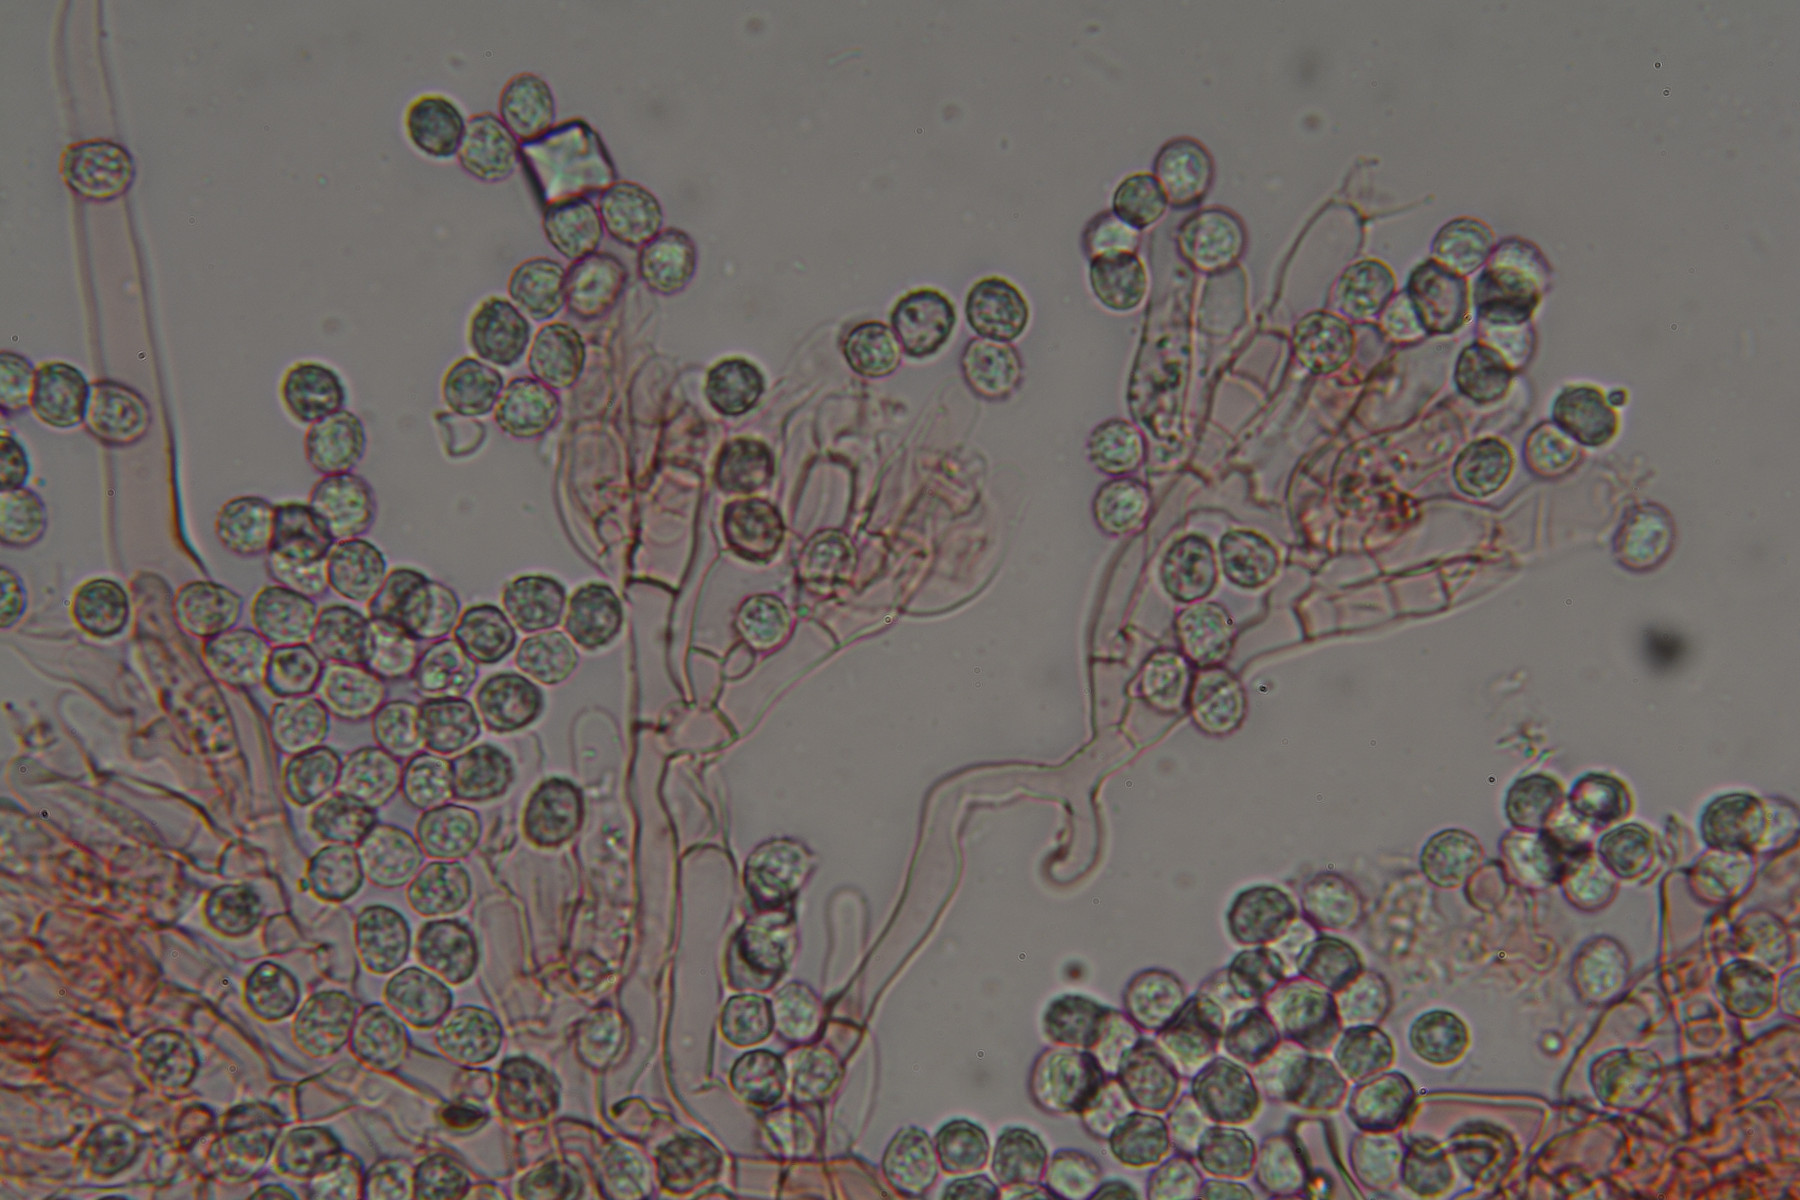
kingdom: Fungi
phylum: Basidiomycota
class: Agaricomycetes
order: Trechisporales
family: Sistotremataceae
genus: Trechispora
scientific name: Trechispora farinacea
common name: pigget vathinde
